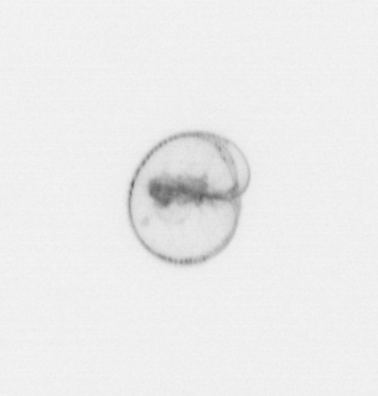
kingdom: Chromista
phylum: Myzozoa
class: Dinophyceae
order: Noctilucales
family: Noctilucaceae
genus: Noctiluca
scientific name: Noctiluca scintillans
